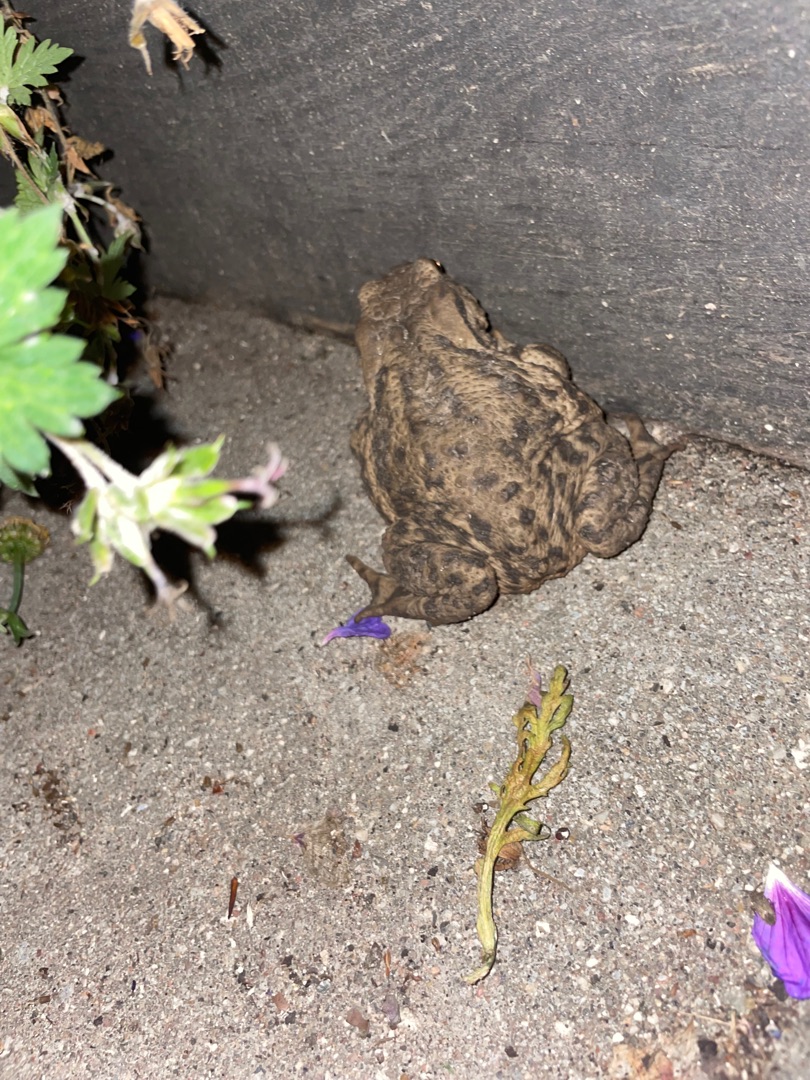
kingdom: Animalia
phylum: Chordata
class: Amphibia
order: Anura
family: Bufonidae
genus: Bufo
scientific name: Bufo bufo
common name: Skrubtudse
